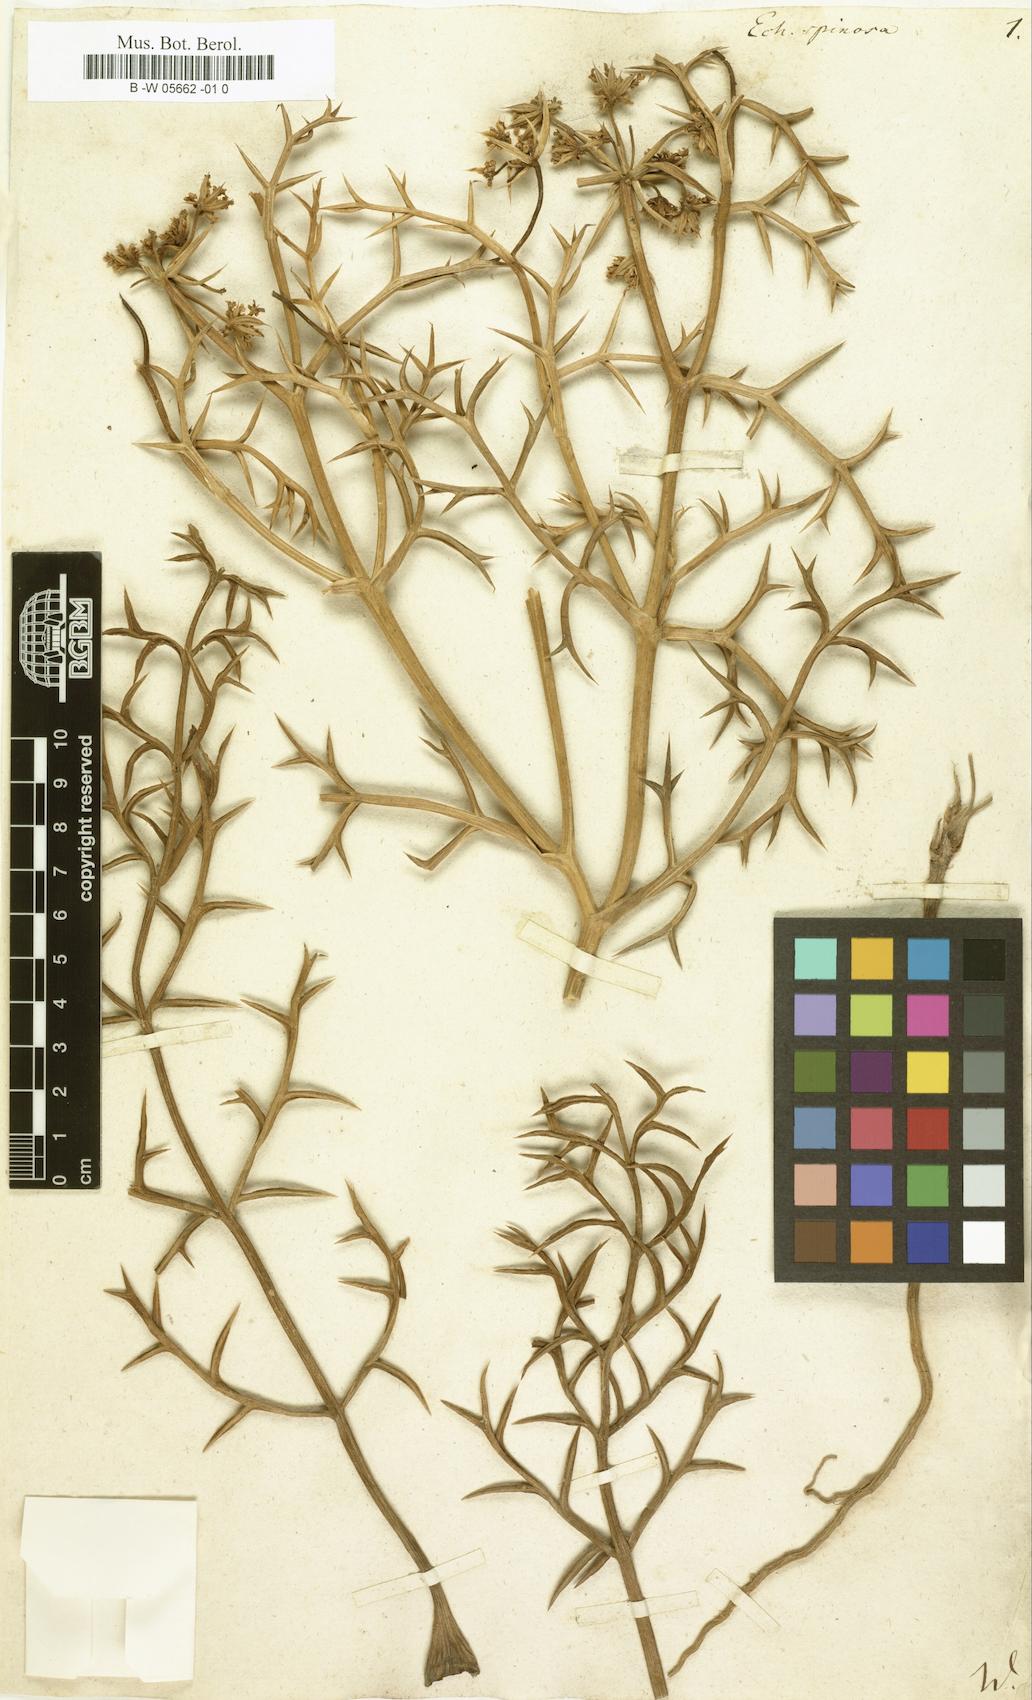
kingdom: Plantae
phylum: Tracheophyta
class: Magnoliopsida
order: Apiales
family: Apiaceae
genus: Echinophora
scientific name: Echinophora spinosa
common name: Prickly samphire
